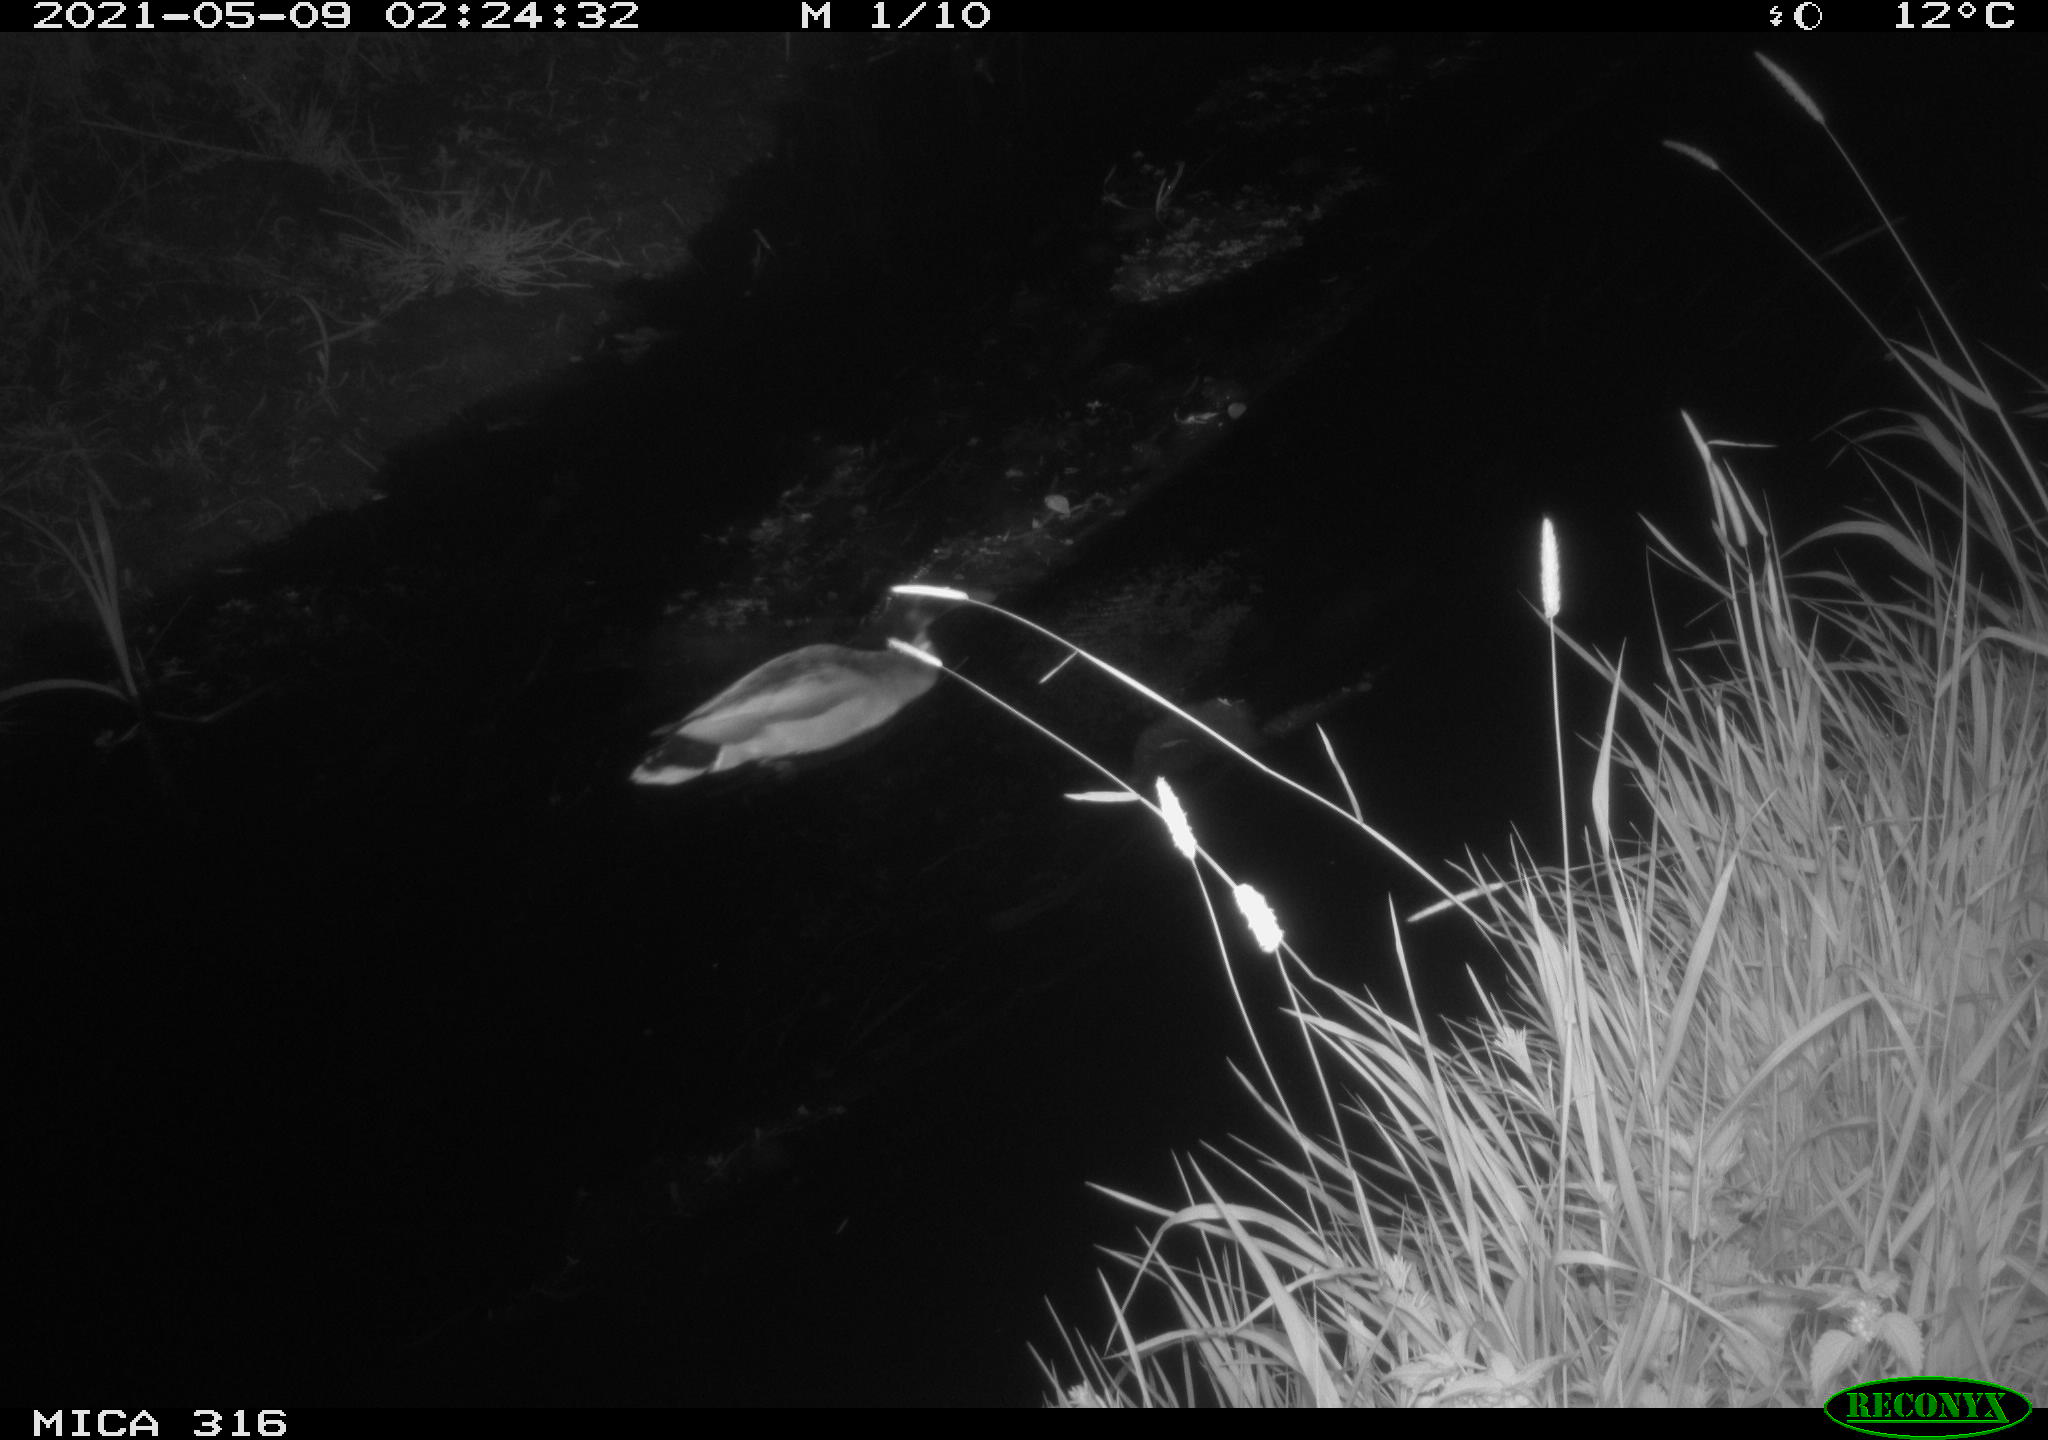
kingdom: Animalia
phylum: Chordata
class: Aves
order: Anseriformes
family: Anatidae
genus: Anas
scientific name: Anas platyrhynchos
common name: Mallard
